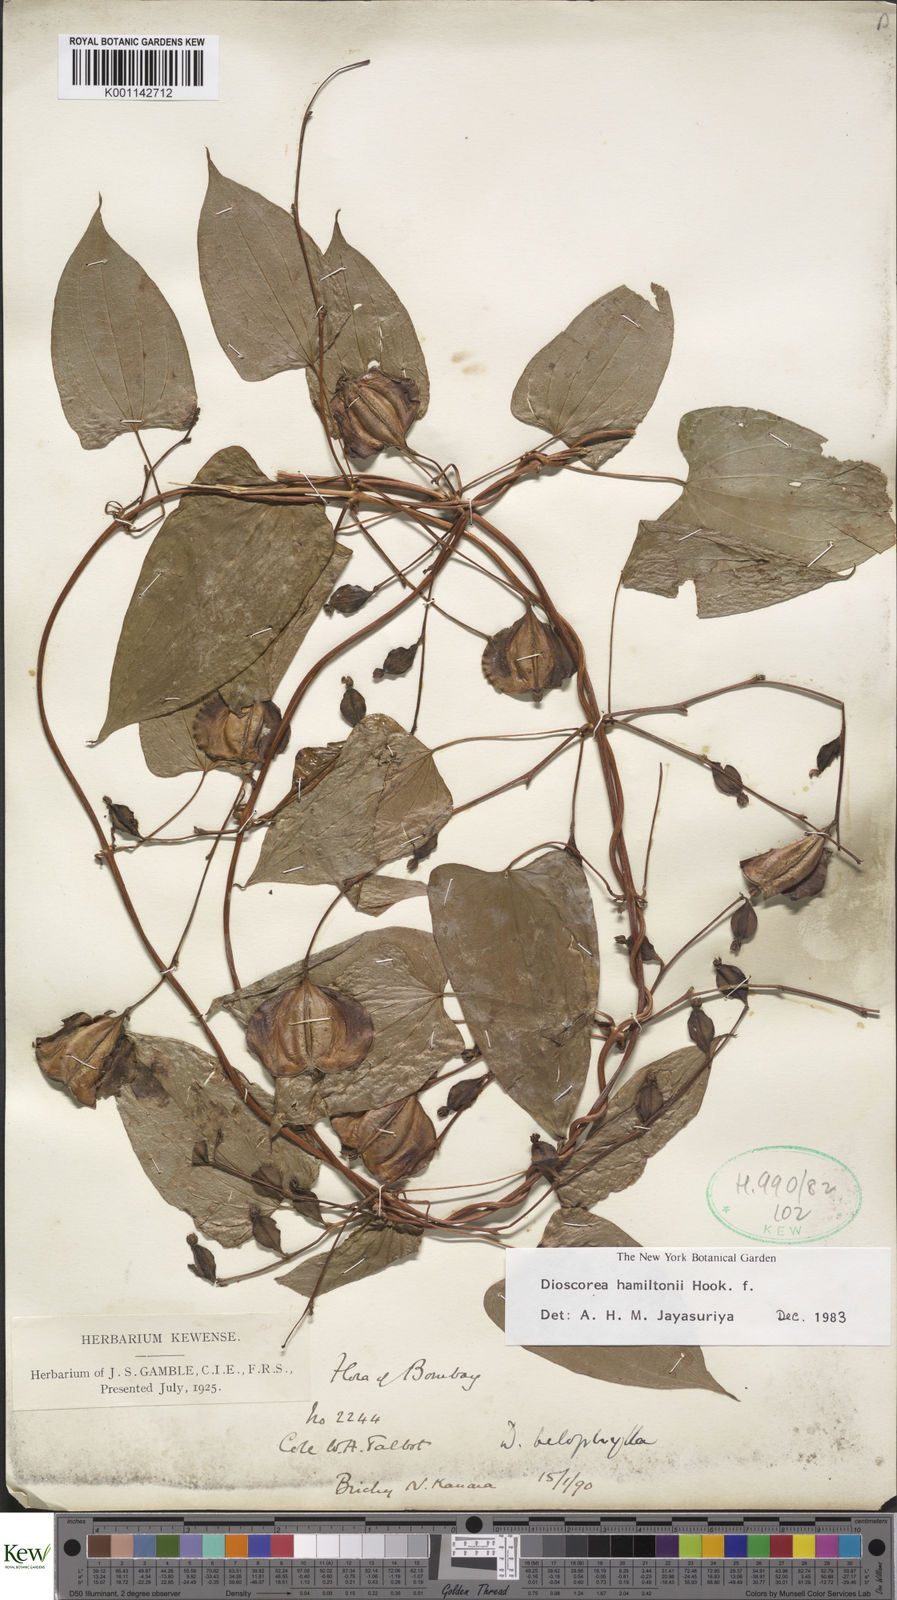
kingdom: Plantae
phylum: Tracheophyta
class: Liliopsida
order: Dioscoreales
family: Dioscoreaceae
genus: Dioscorea
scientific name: Dioscorea hamiltonii
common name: Mountain yam
